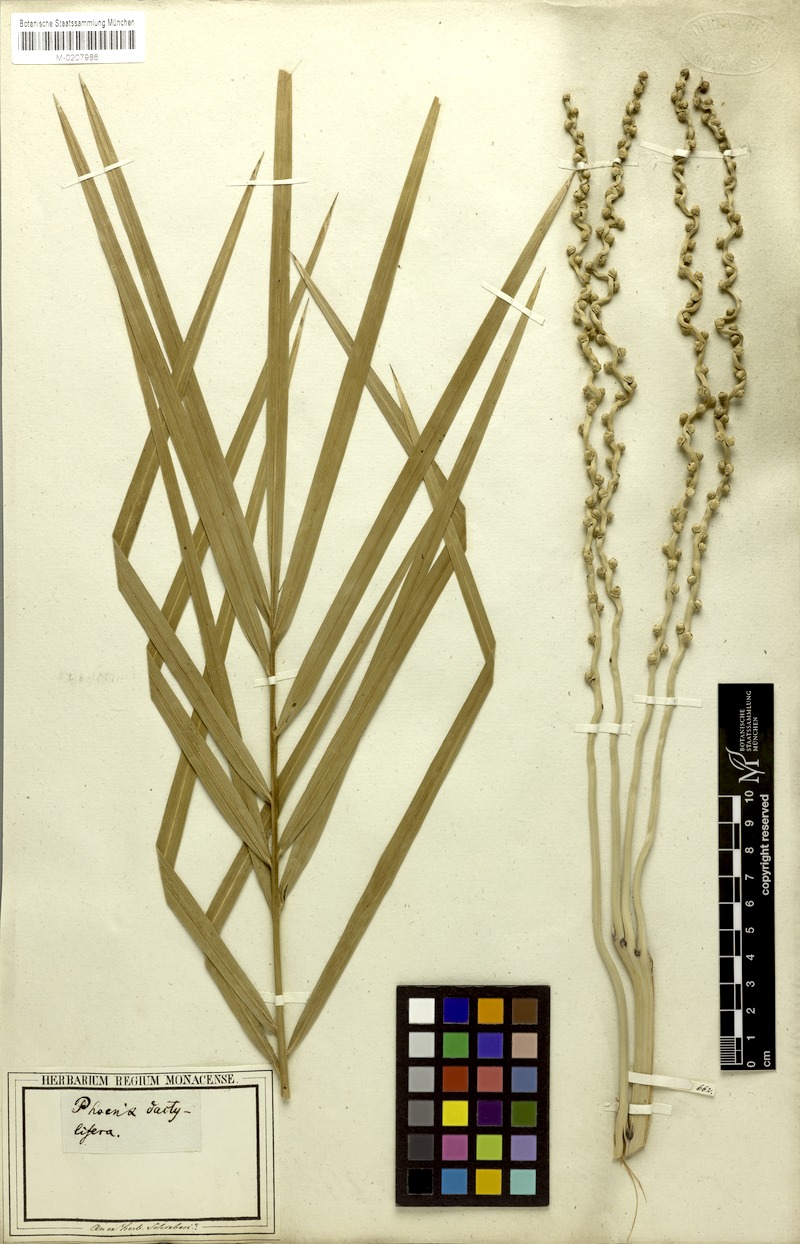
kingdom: Plantae
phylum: Tracheophyta
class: Liliopsida
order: Arecales
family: Arecaceae
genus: Phoenix
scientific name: Phoenix dactylifera
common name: Date palm
